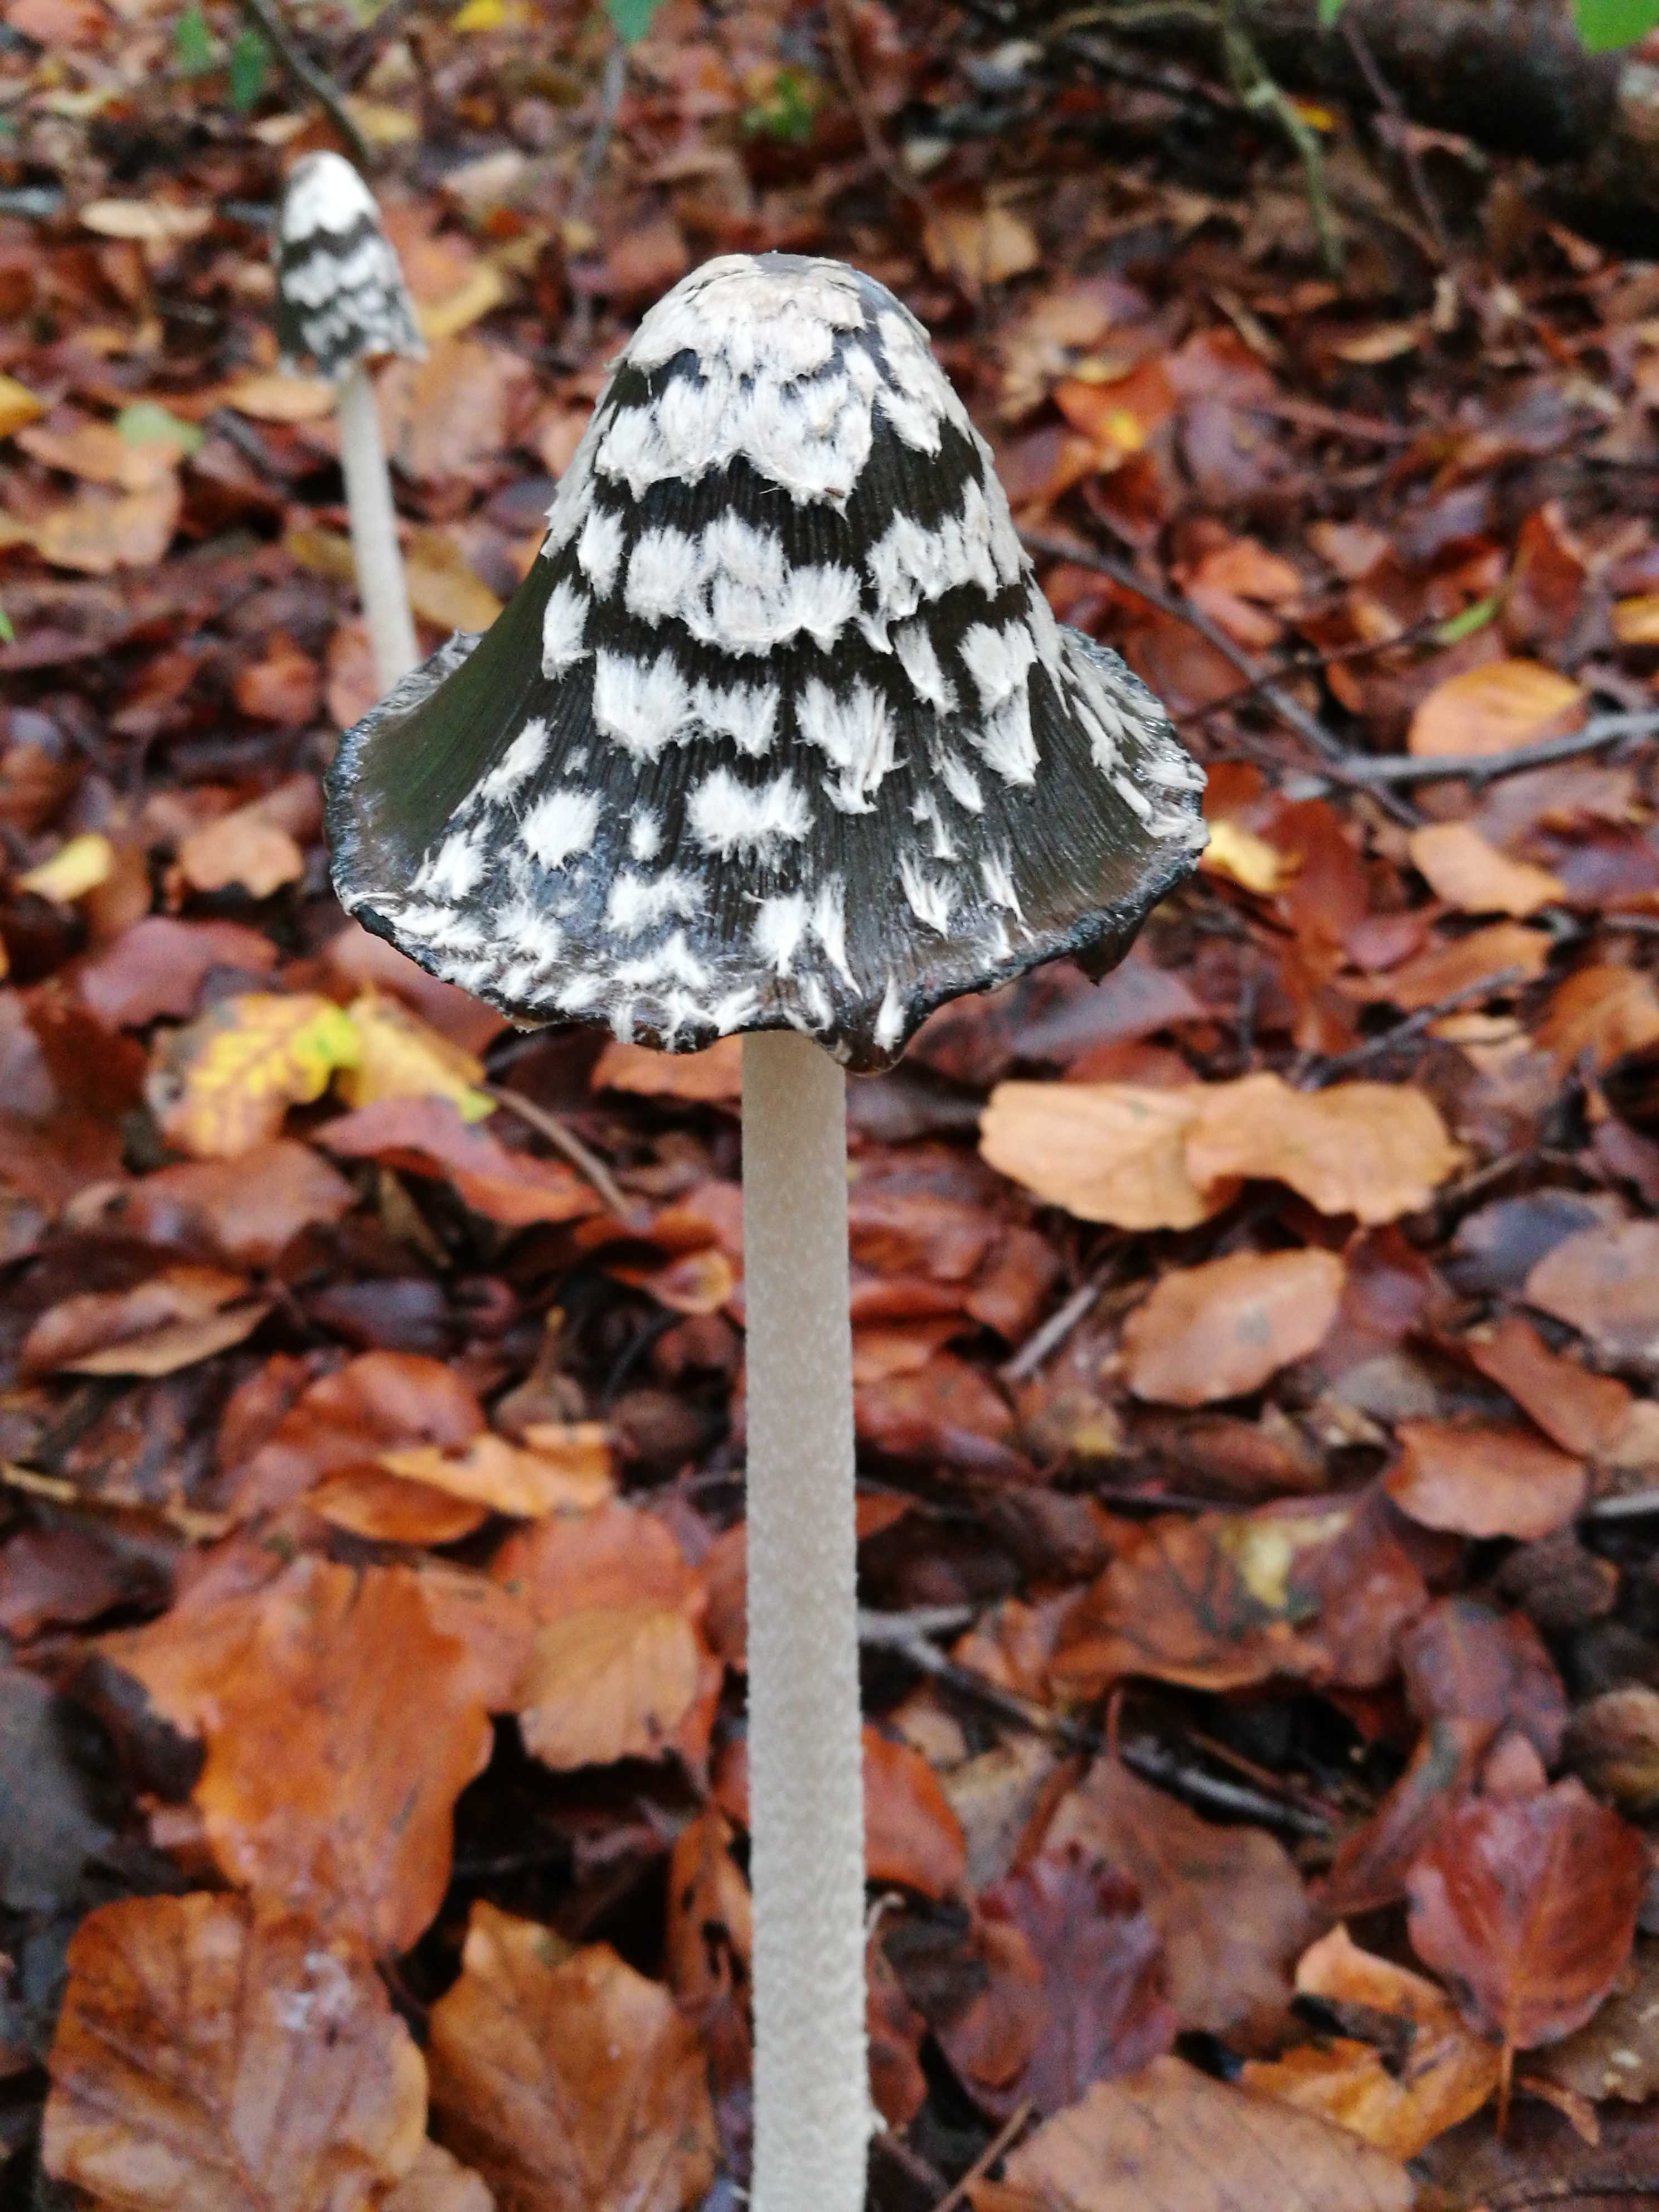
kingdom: Fungi
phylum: Basidiomycota
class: Agaricomycetes
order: Agaricales
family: Psathyrellaceae
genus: Coprinopsis
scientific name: Coprinopsis picacea
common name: skade-blækhat
